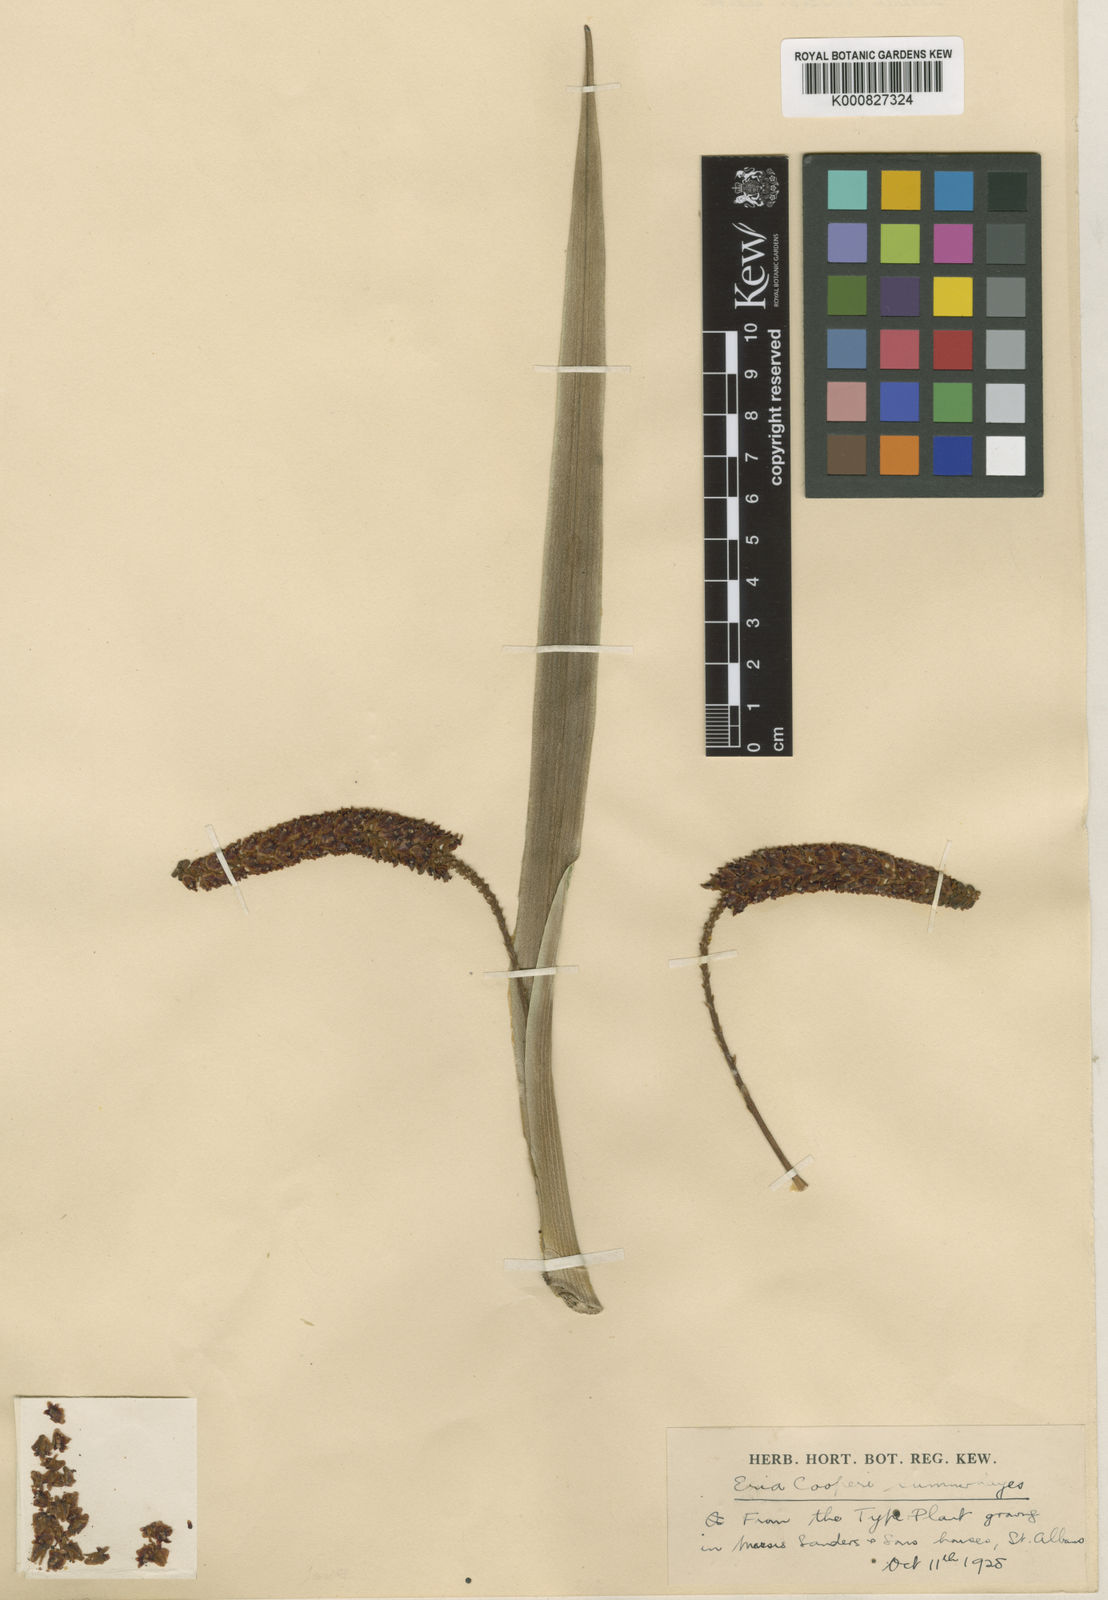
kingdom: Plantae
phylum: Tracheophyta
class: Liliopsida
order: Asparagales
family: Orchidaceae
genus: Aeridostachya
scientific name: Aeridostachya acuminata
